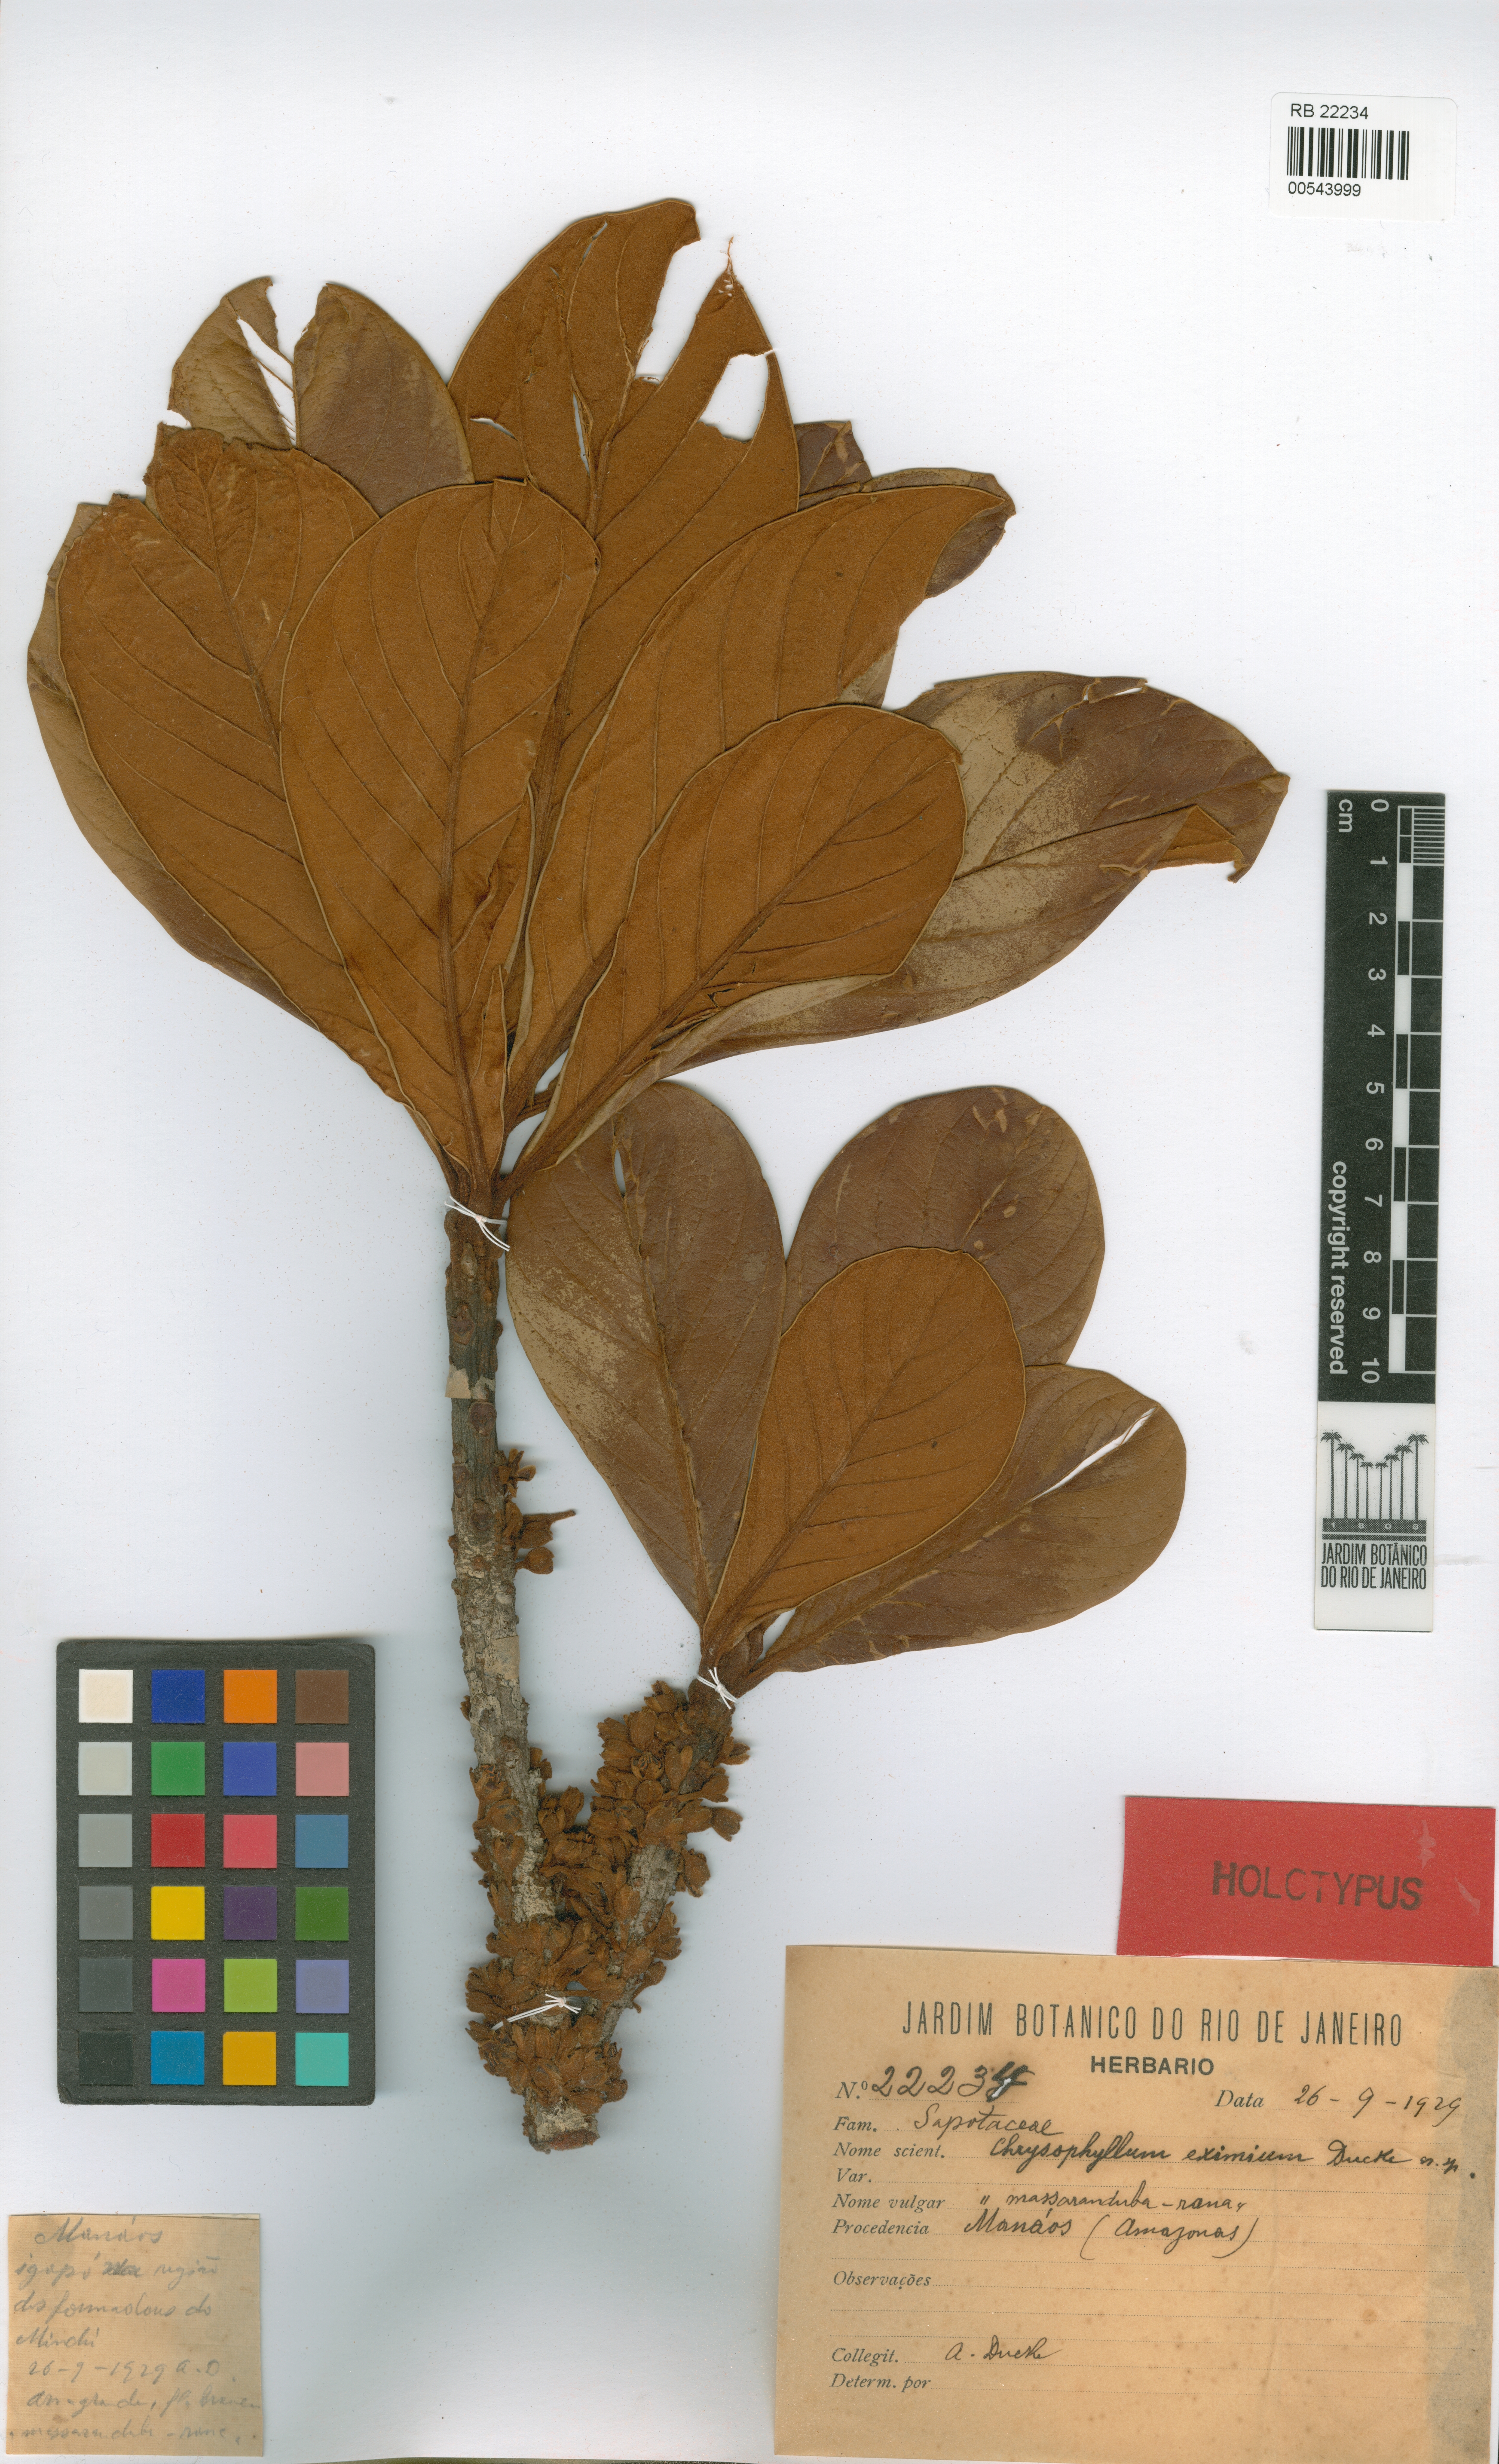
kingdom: Plantae
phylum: Tracheophyta
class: Magnoliopsida
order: Ericales
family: Sapotaceae
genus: Chrysophyllum
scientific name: Chrysophyllum eximium
